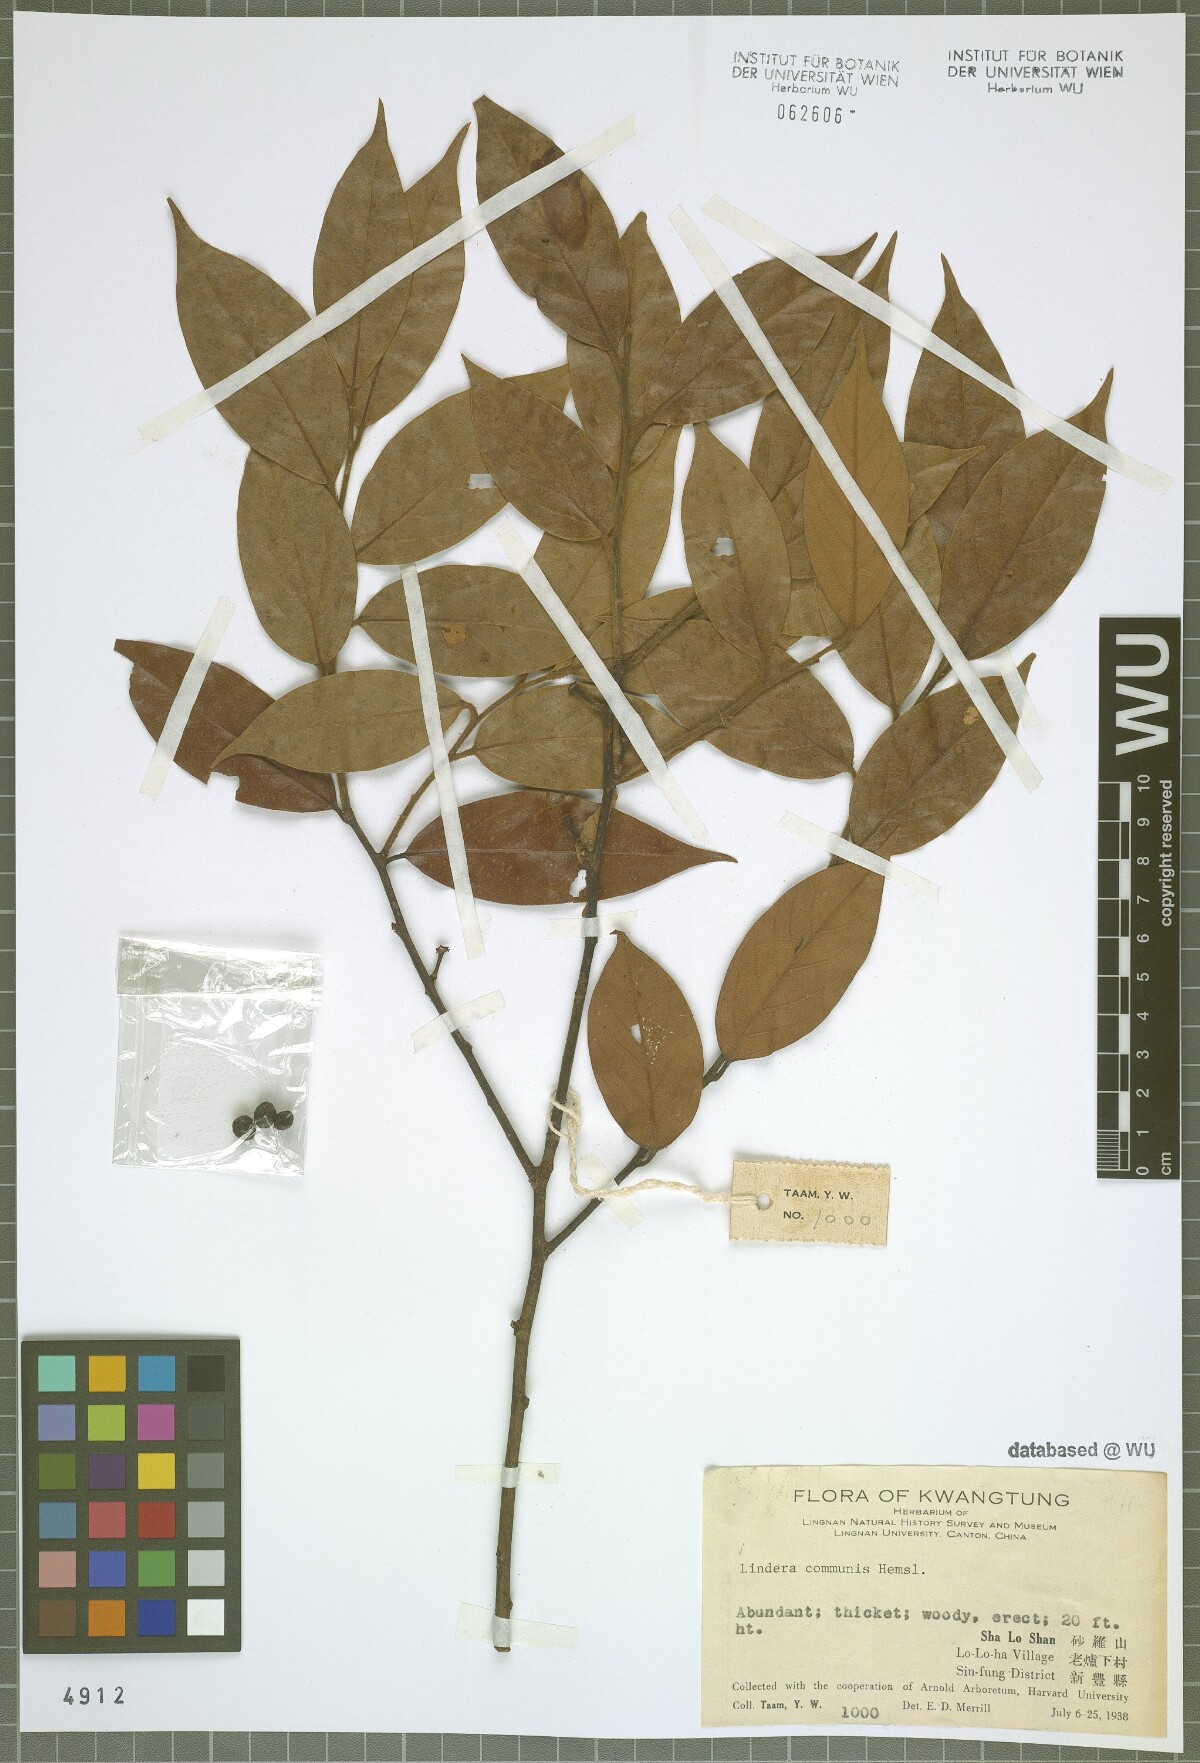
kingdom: Plantae
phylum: Tracheophyta
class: Magnoliopsida
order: Laurales
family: Lauraceae
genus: Lindera
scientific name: Lindera communis
